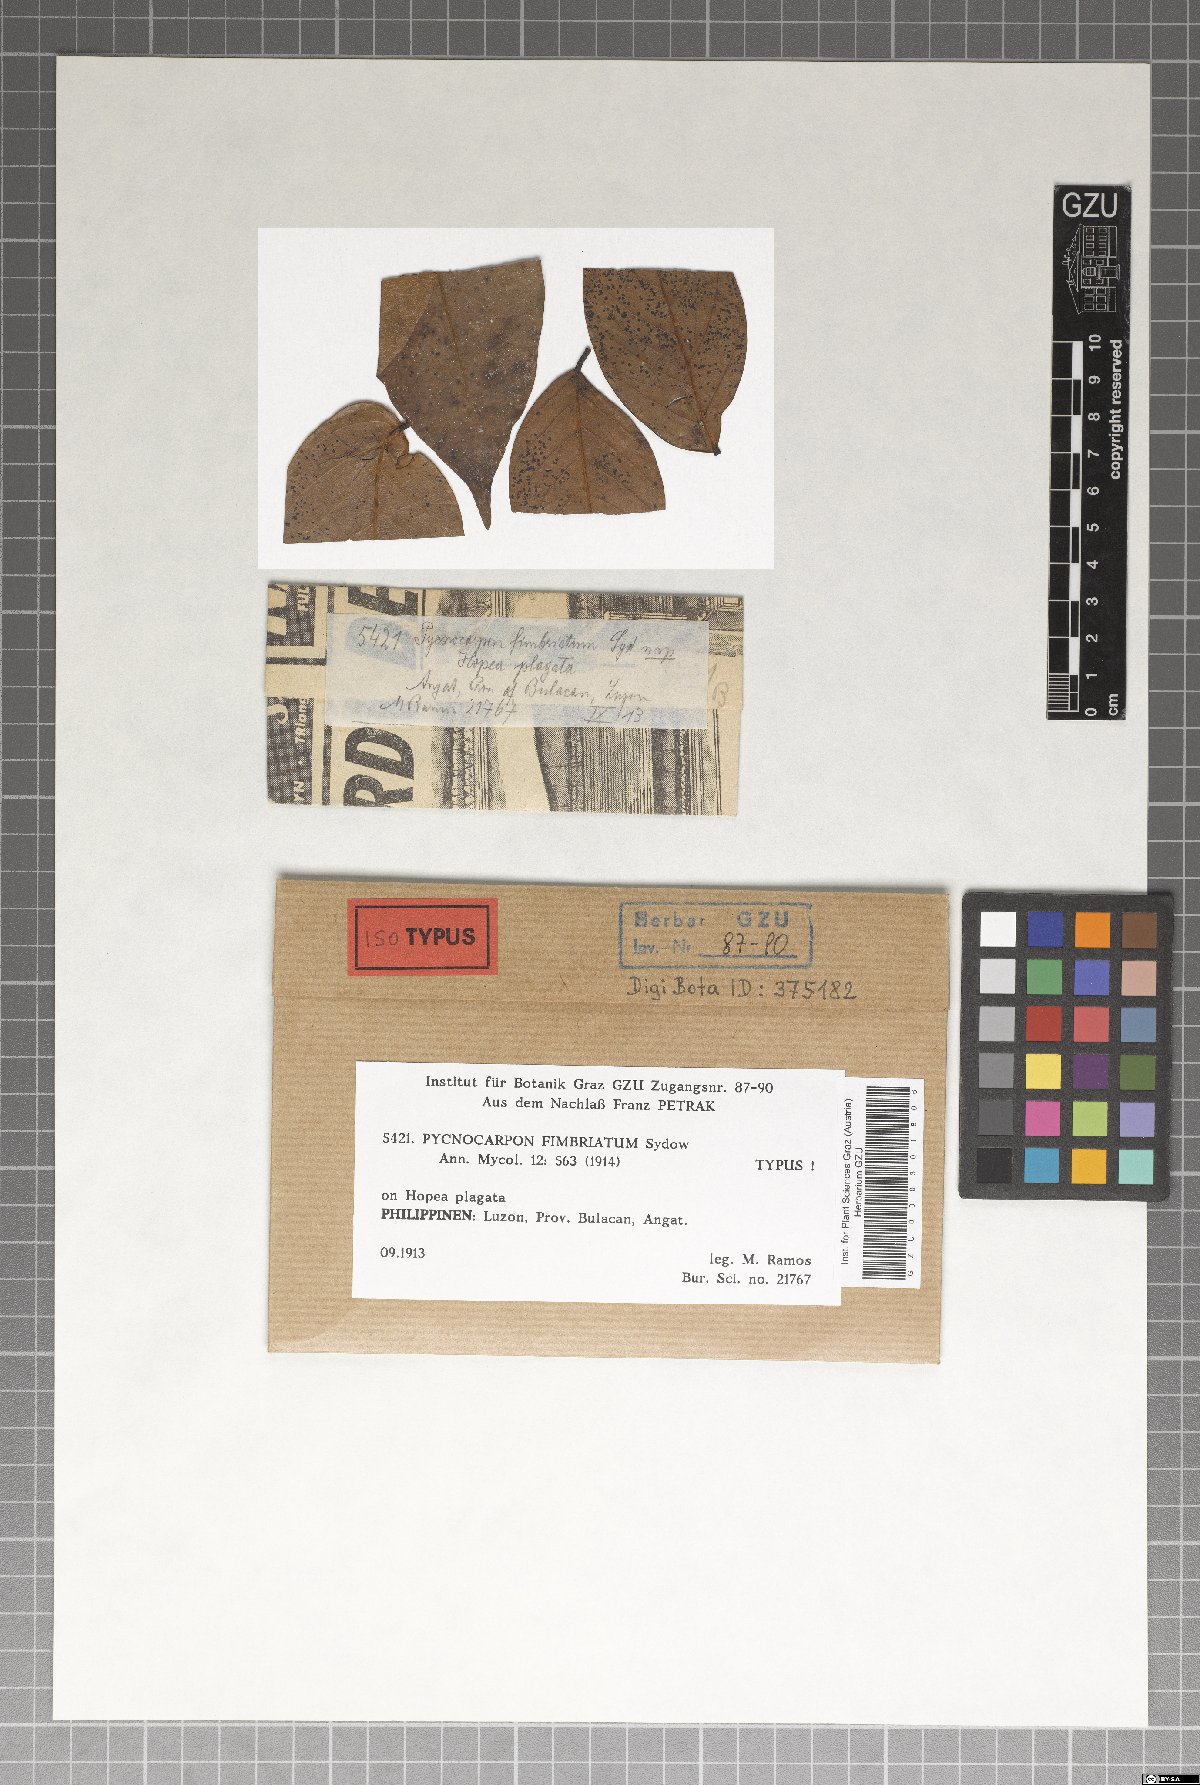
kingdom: Fungi
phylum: Ascomycota
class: Dothideomycetes
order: Asterinales
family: Asterinaceae
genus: Pycnocarpon
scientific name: Pycnocarpon fimbriatum
